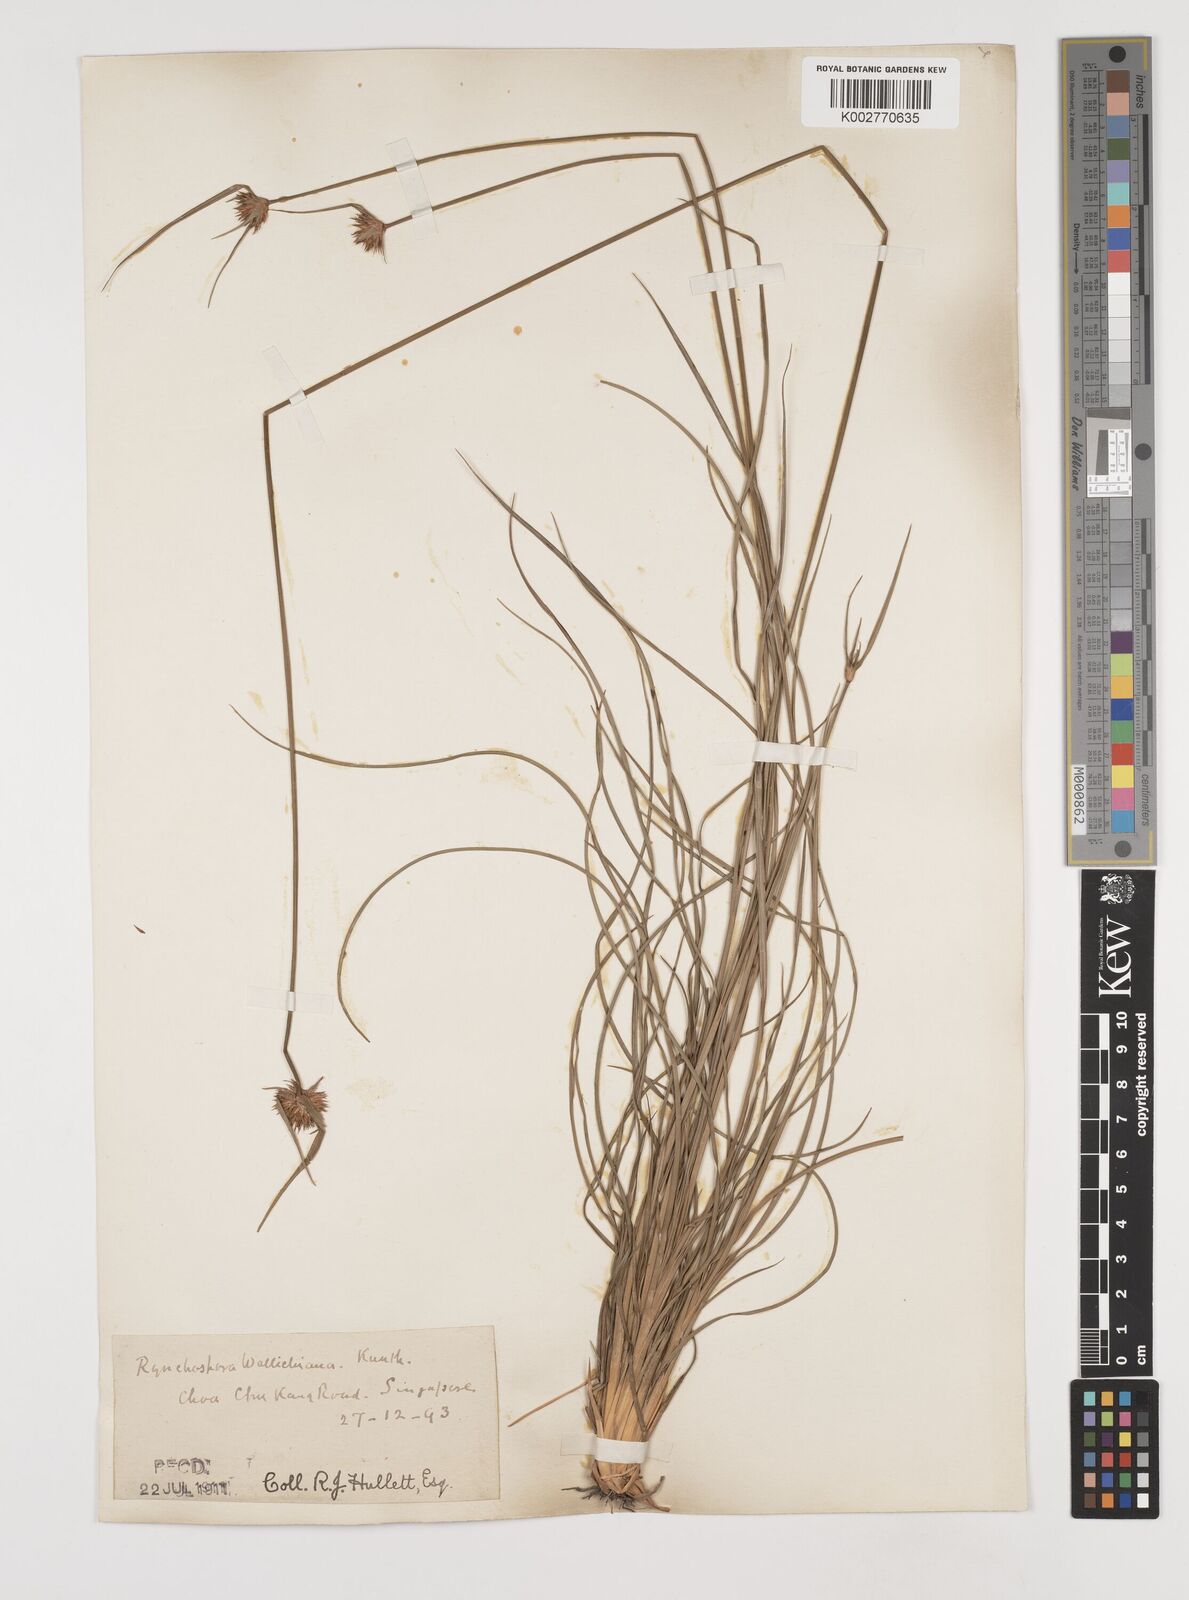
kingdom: Plantae
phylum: Tracheophyta
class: Liliopsida
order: Poales
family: Cyperaceae
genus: Rhynchospora
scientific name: Rhynchospora rubra
